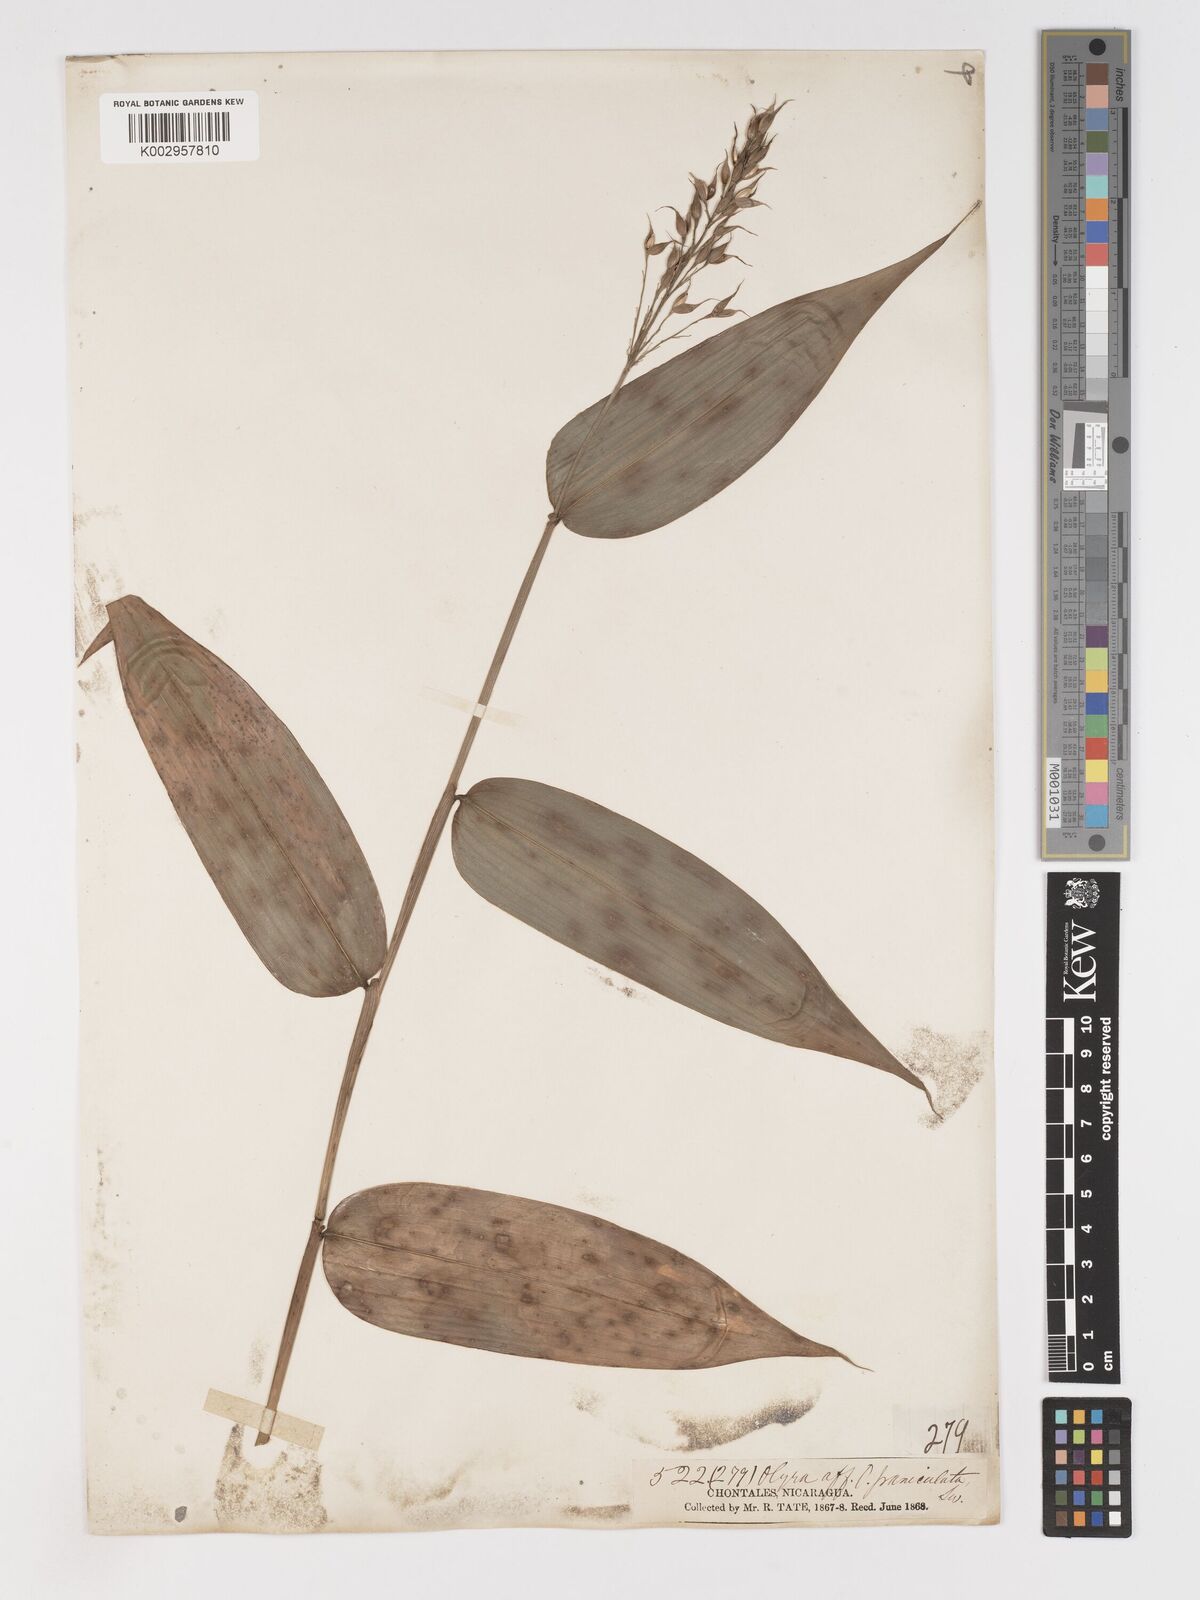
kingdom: Plantae
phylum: Tracheophyta
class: Liliopsida
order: Poales
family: Poaceae
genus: Olyra
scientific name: Olyra latifolia
